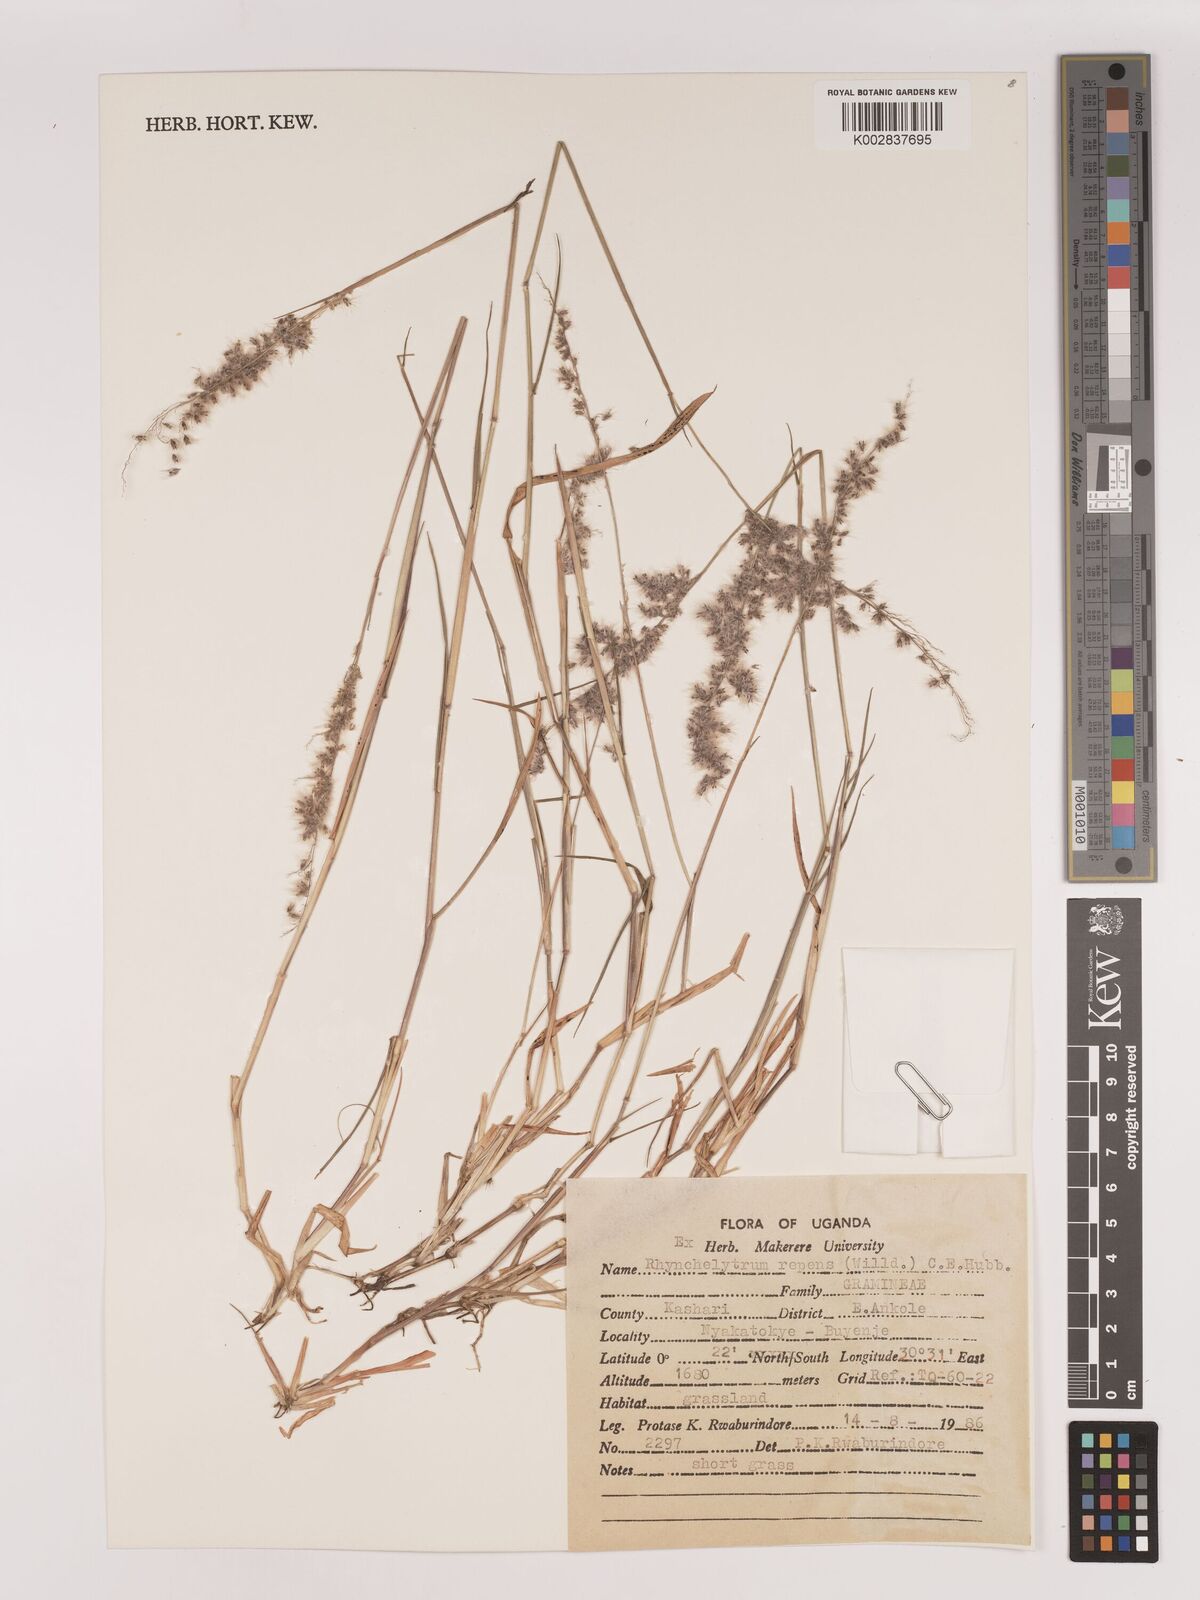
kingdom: Plantae
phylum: Tracheophyta
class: Liliopsida
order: Poales
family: Poaceae
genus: Melinis
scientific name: Melinis repens
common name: Rose natal grass
